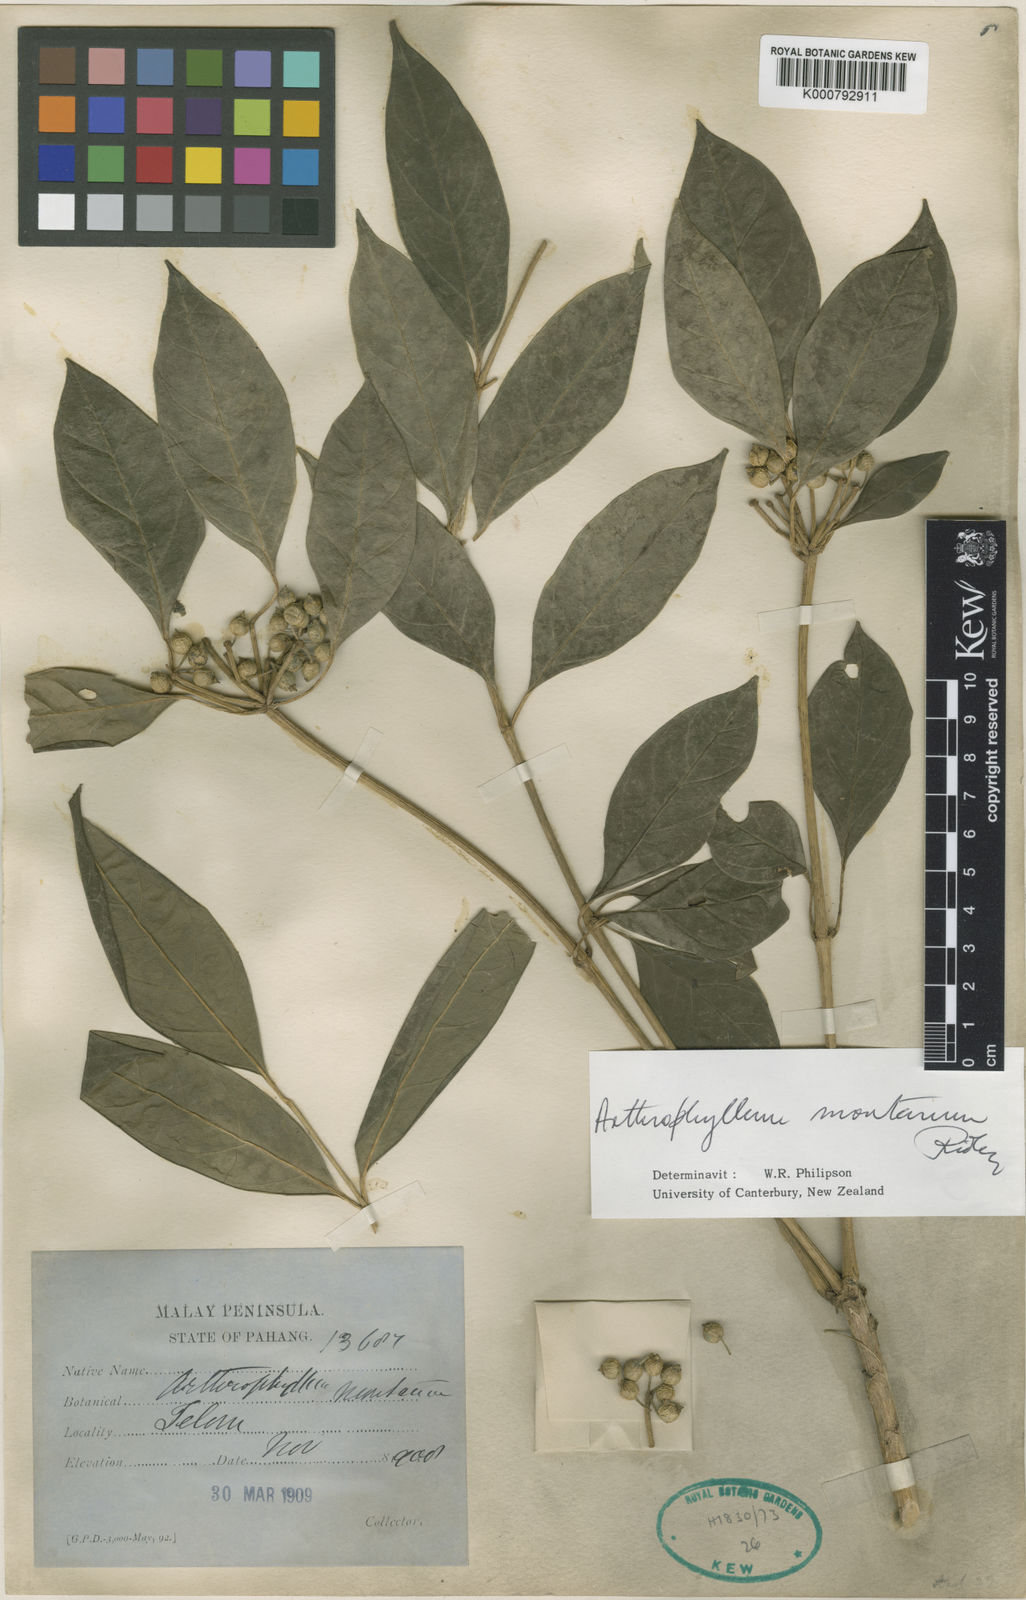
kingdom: Plantae
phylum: Tracheophyta
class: Magnoliopsida
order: Apiales
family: Araliaceae
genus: Polyscias
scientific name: Polyscias montana
